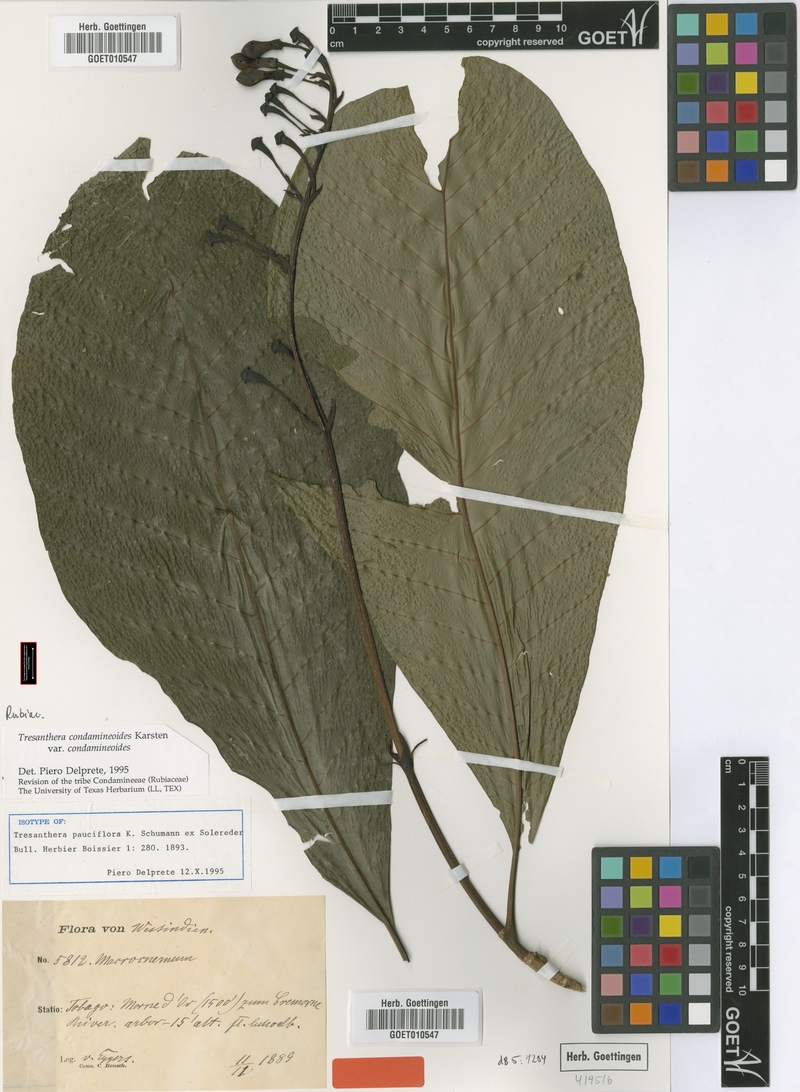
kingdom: Plantae
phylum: Tracheophyta
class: Magnoliopsida
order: Gentianales
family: Rubiaceae
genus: Rustia
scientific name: Rustia condamineoides
